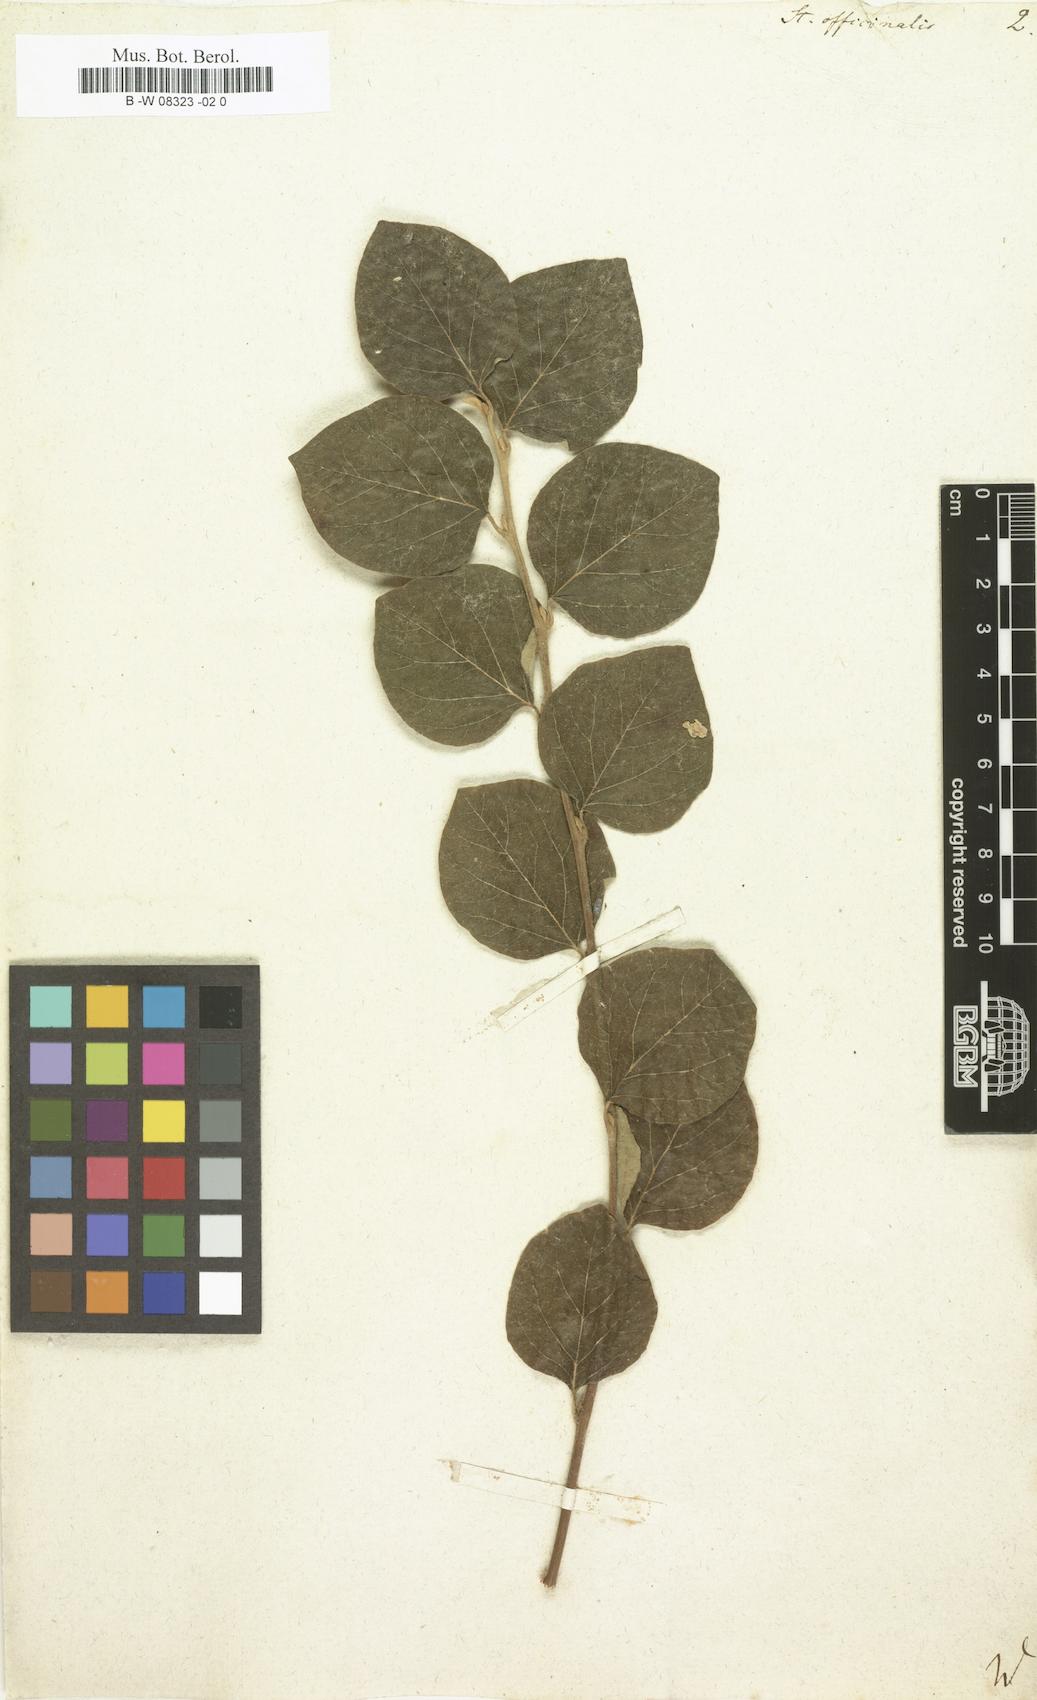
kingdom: Plantae
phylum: Tracheophyta
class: Magnoliopsida
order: Ericales
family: Styracaceae
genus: Styrax
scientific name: Styrax officinale
